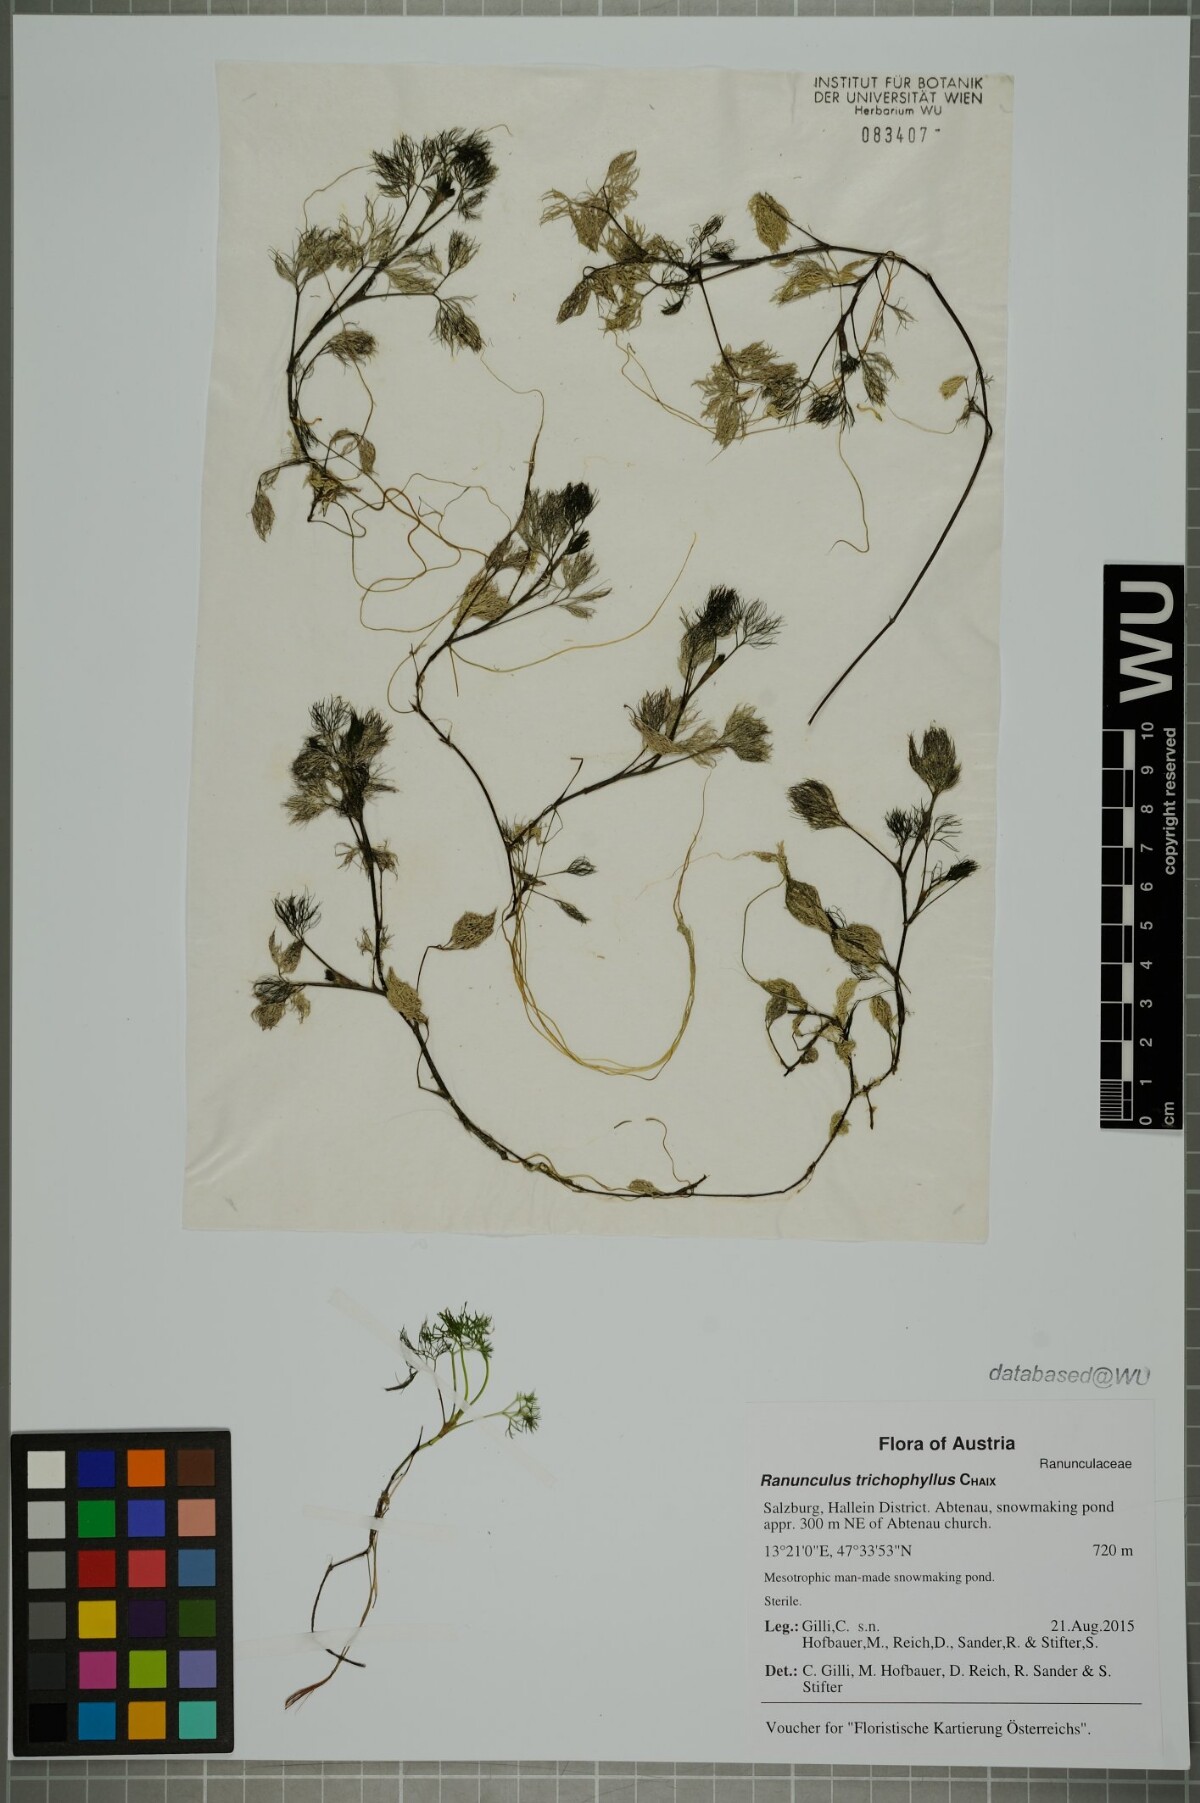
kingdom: Plantae
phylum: Tracheophyta
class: Magnoliopsida
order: Ranunculales
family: Ranunculaceae
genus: Ranunculus
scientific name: Ranunculus trichophyllus
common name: Thread-leaved water-crowfoot
